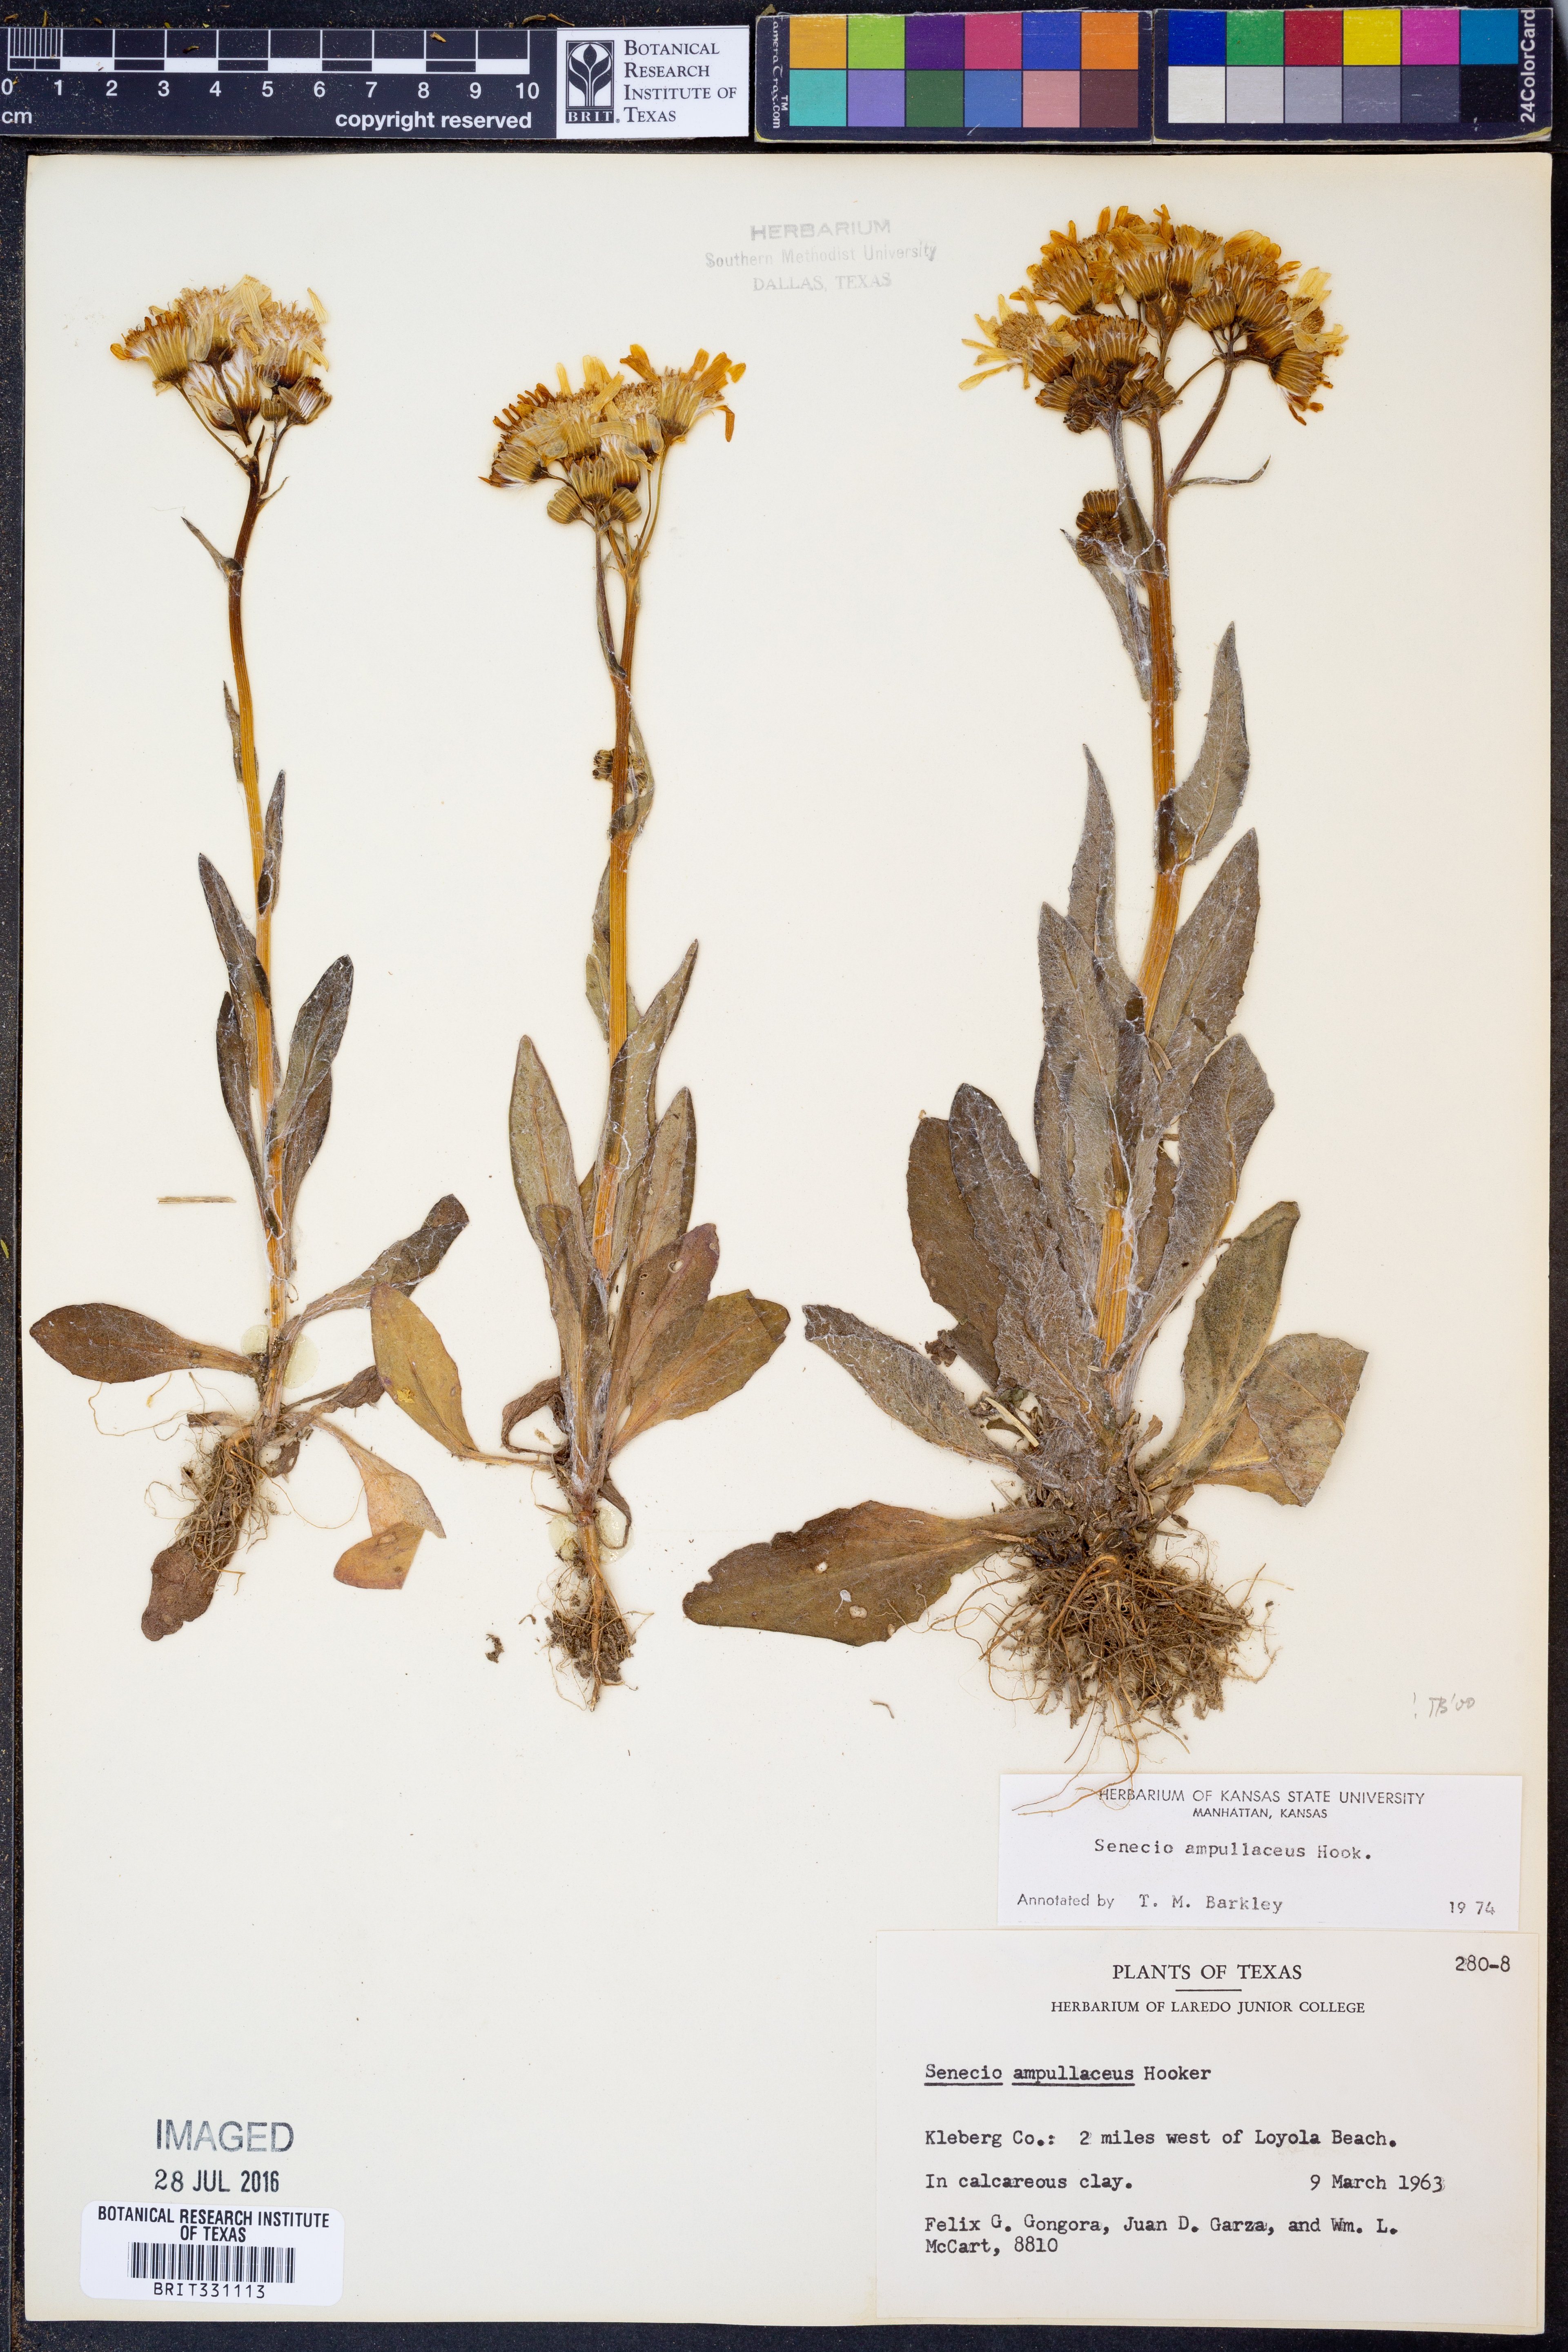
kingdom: Plantae
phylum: Tracheophyta
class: Magnoliopsida
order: Asterales
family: Asteraceae
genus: Senecio
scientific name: Senecio ampullaceus
